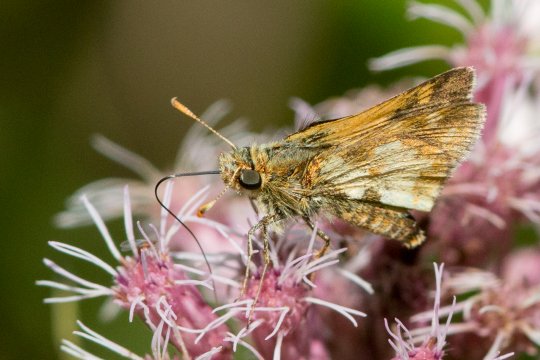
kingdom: Animalia
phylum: Arthropoda
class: Insecta
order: Lepidoptera
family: Hesperiidae
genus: Polites
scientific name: Polites coras
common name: Peck's Skipper
